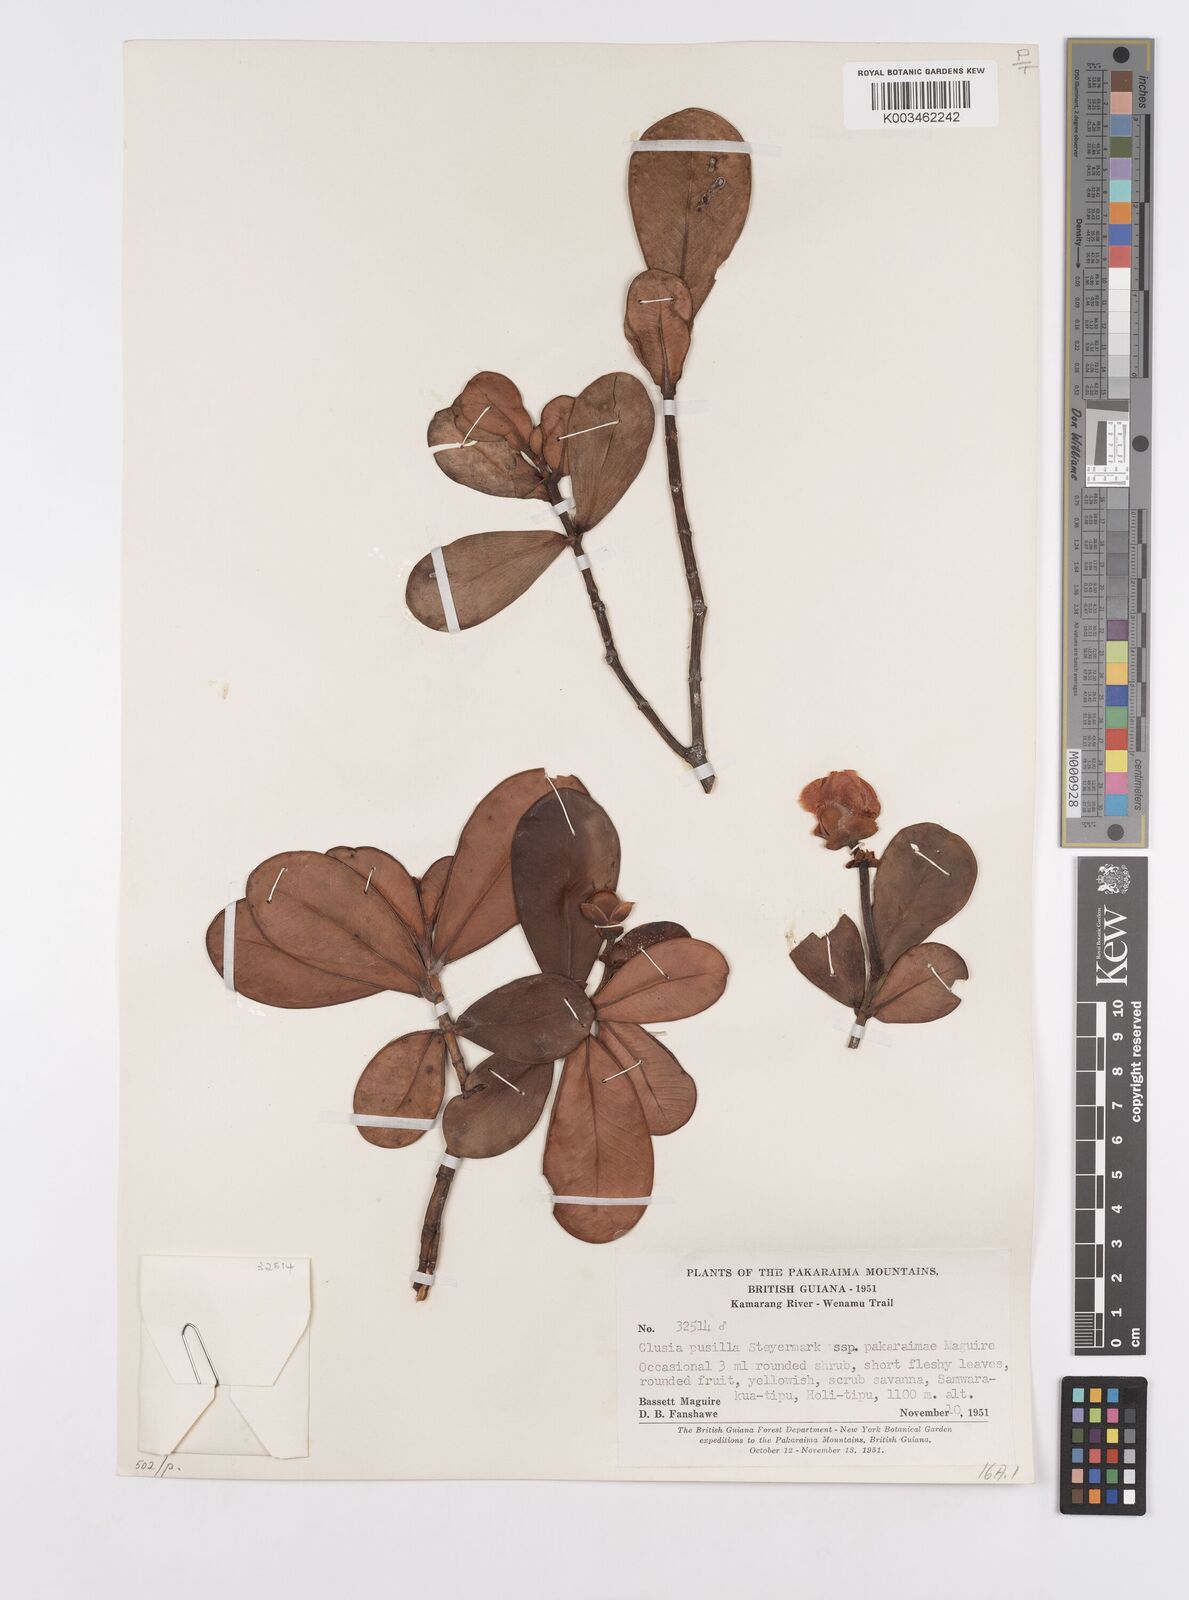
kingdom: Plantae
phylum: Tracheophyta
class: Magnoliopsida
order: Malpighiales
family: Clusiaceae
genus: Clusia
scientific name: Clusia pusilla
